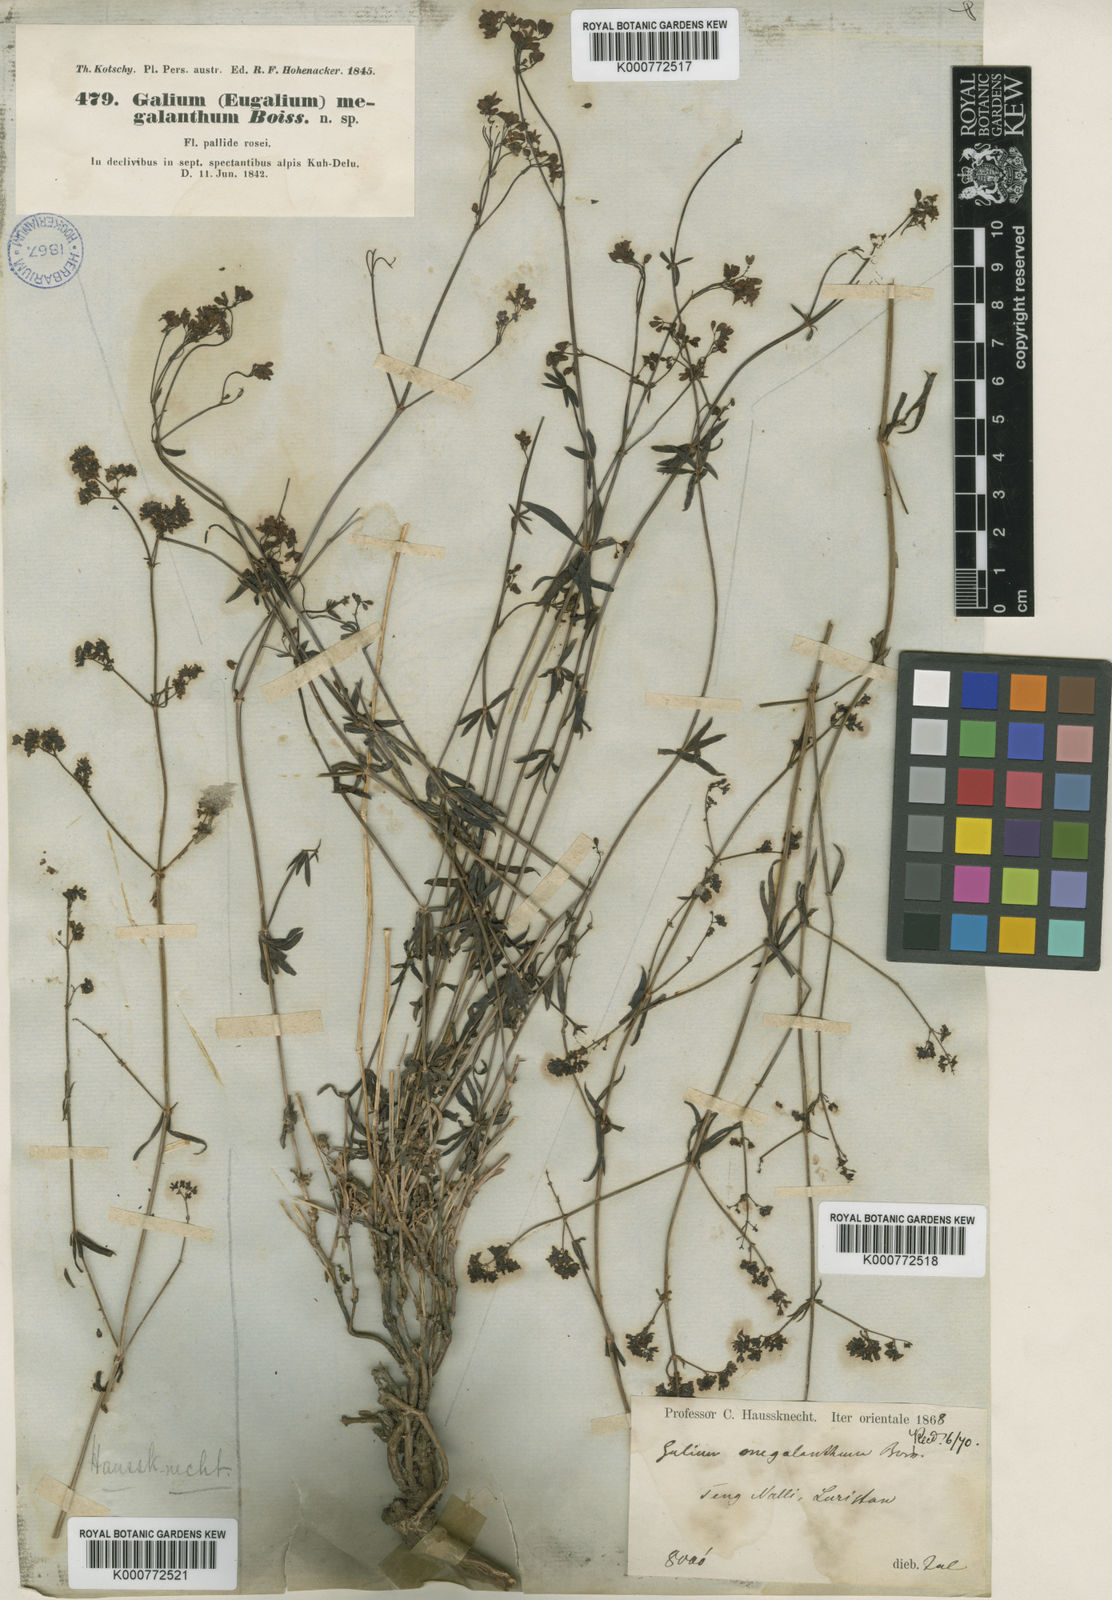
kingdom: Plantae
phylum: Tracheophyta
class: Magnoliopsida
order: Gentianales
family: Rubiaceae
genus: Galium
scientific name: Galium subvelutinum
